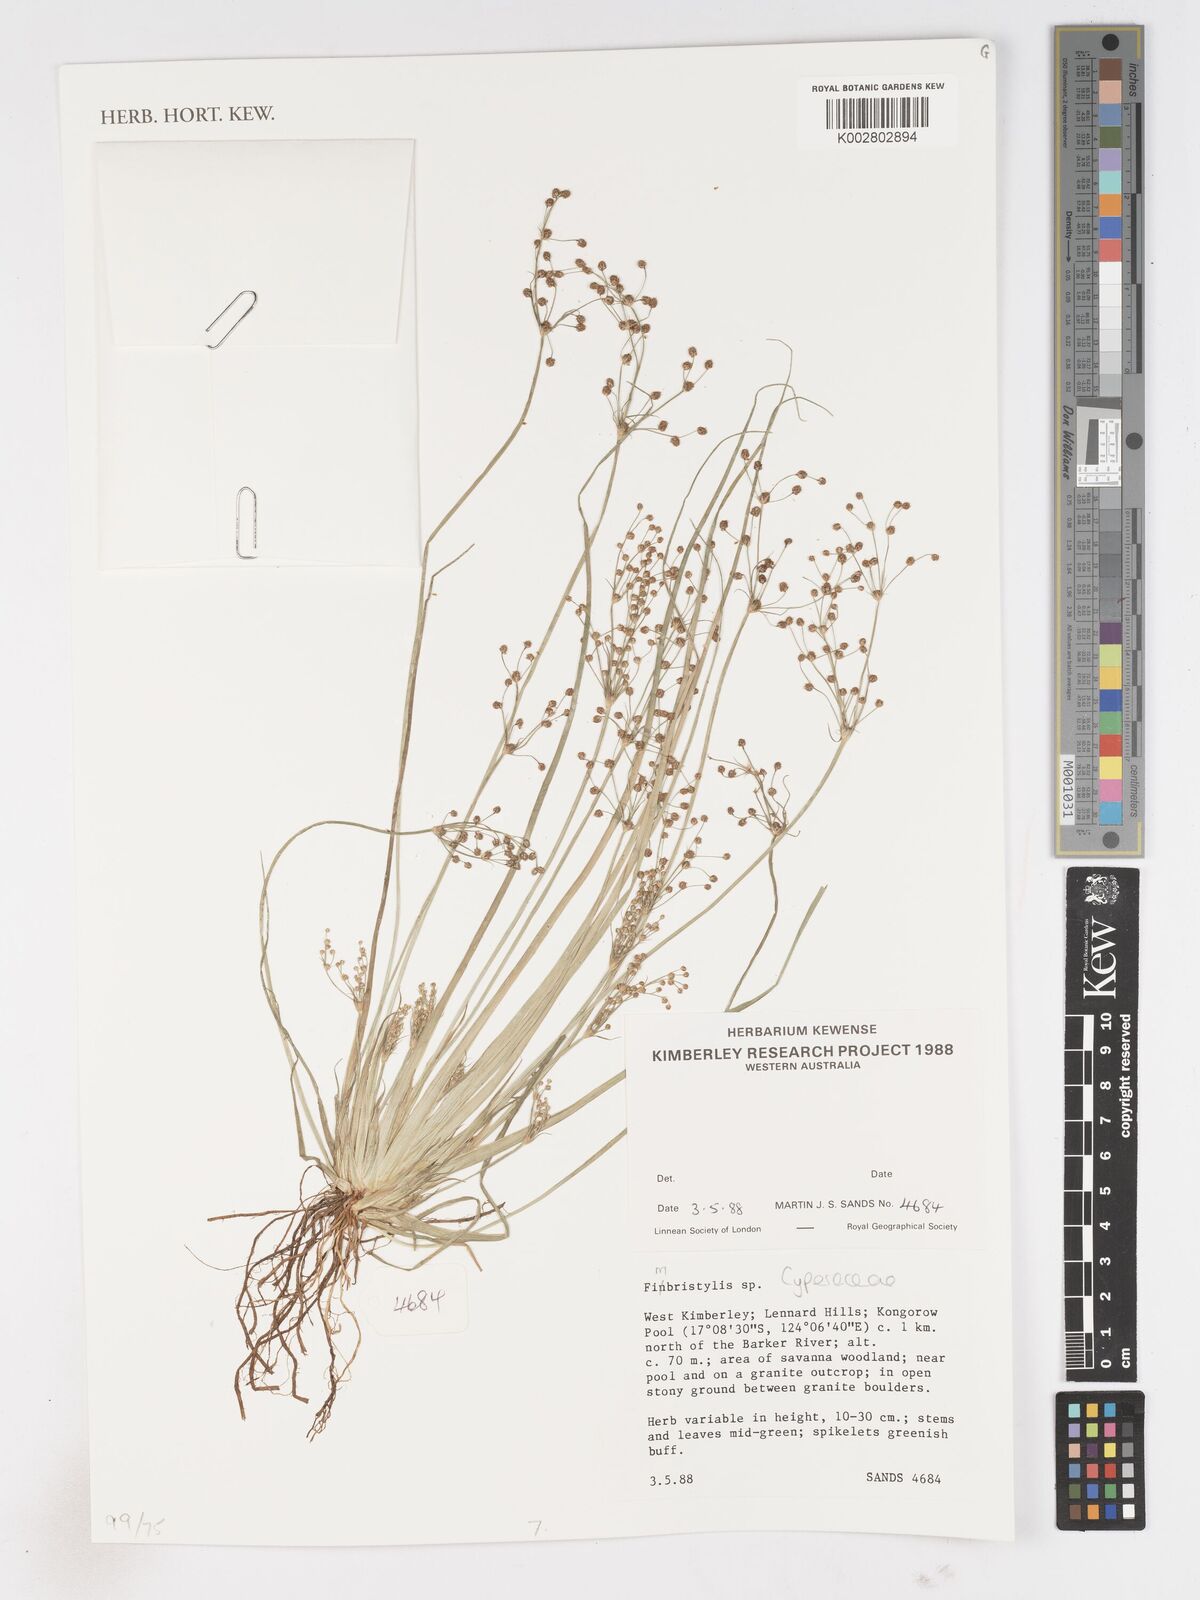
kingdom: Plantae
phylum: Tracheophyta
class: Liliopsida
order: Poales
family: Cyperaceae
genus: Fimbristylis
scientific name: Fimbristylis
